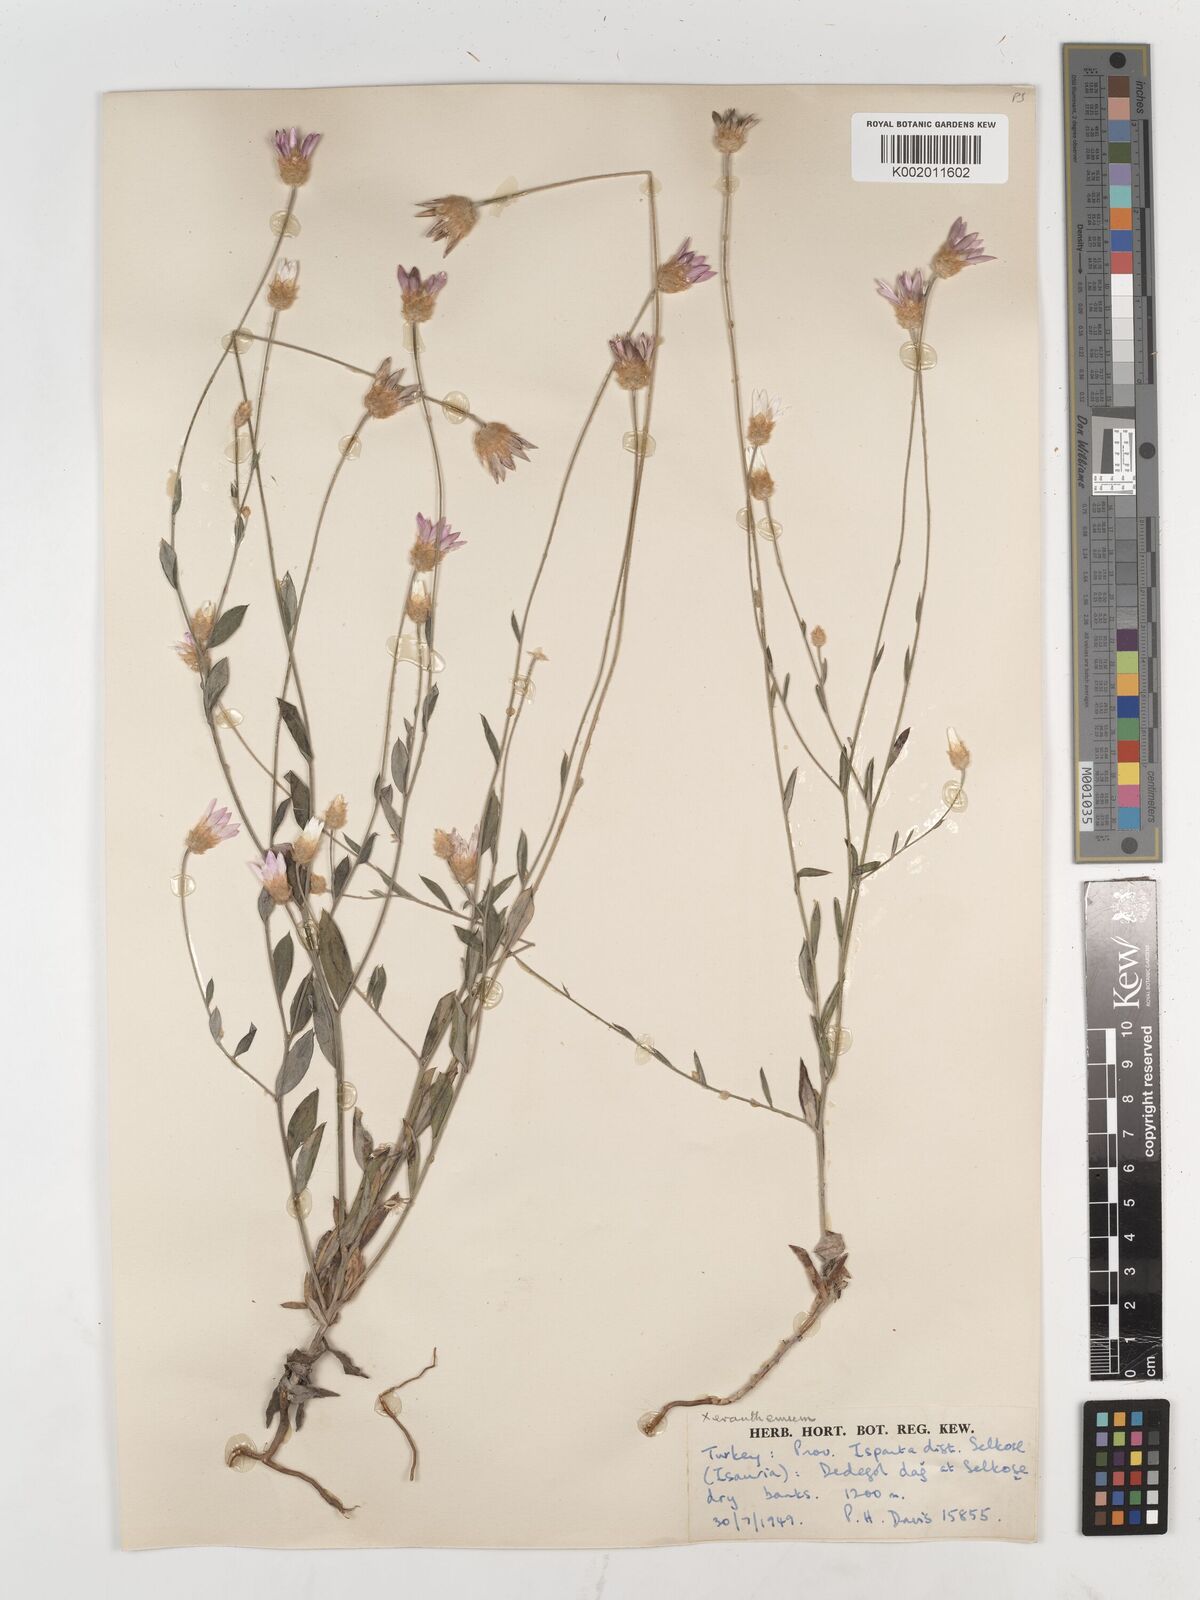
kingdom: Plantae
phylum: Tracheophyta
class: Magnoliopsida
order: Asterales
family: Asteraceae
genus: Xeranthemum
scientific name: Xeranthemum annuum
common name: Immortelle
